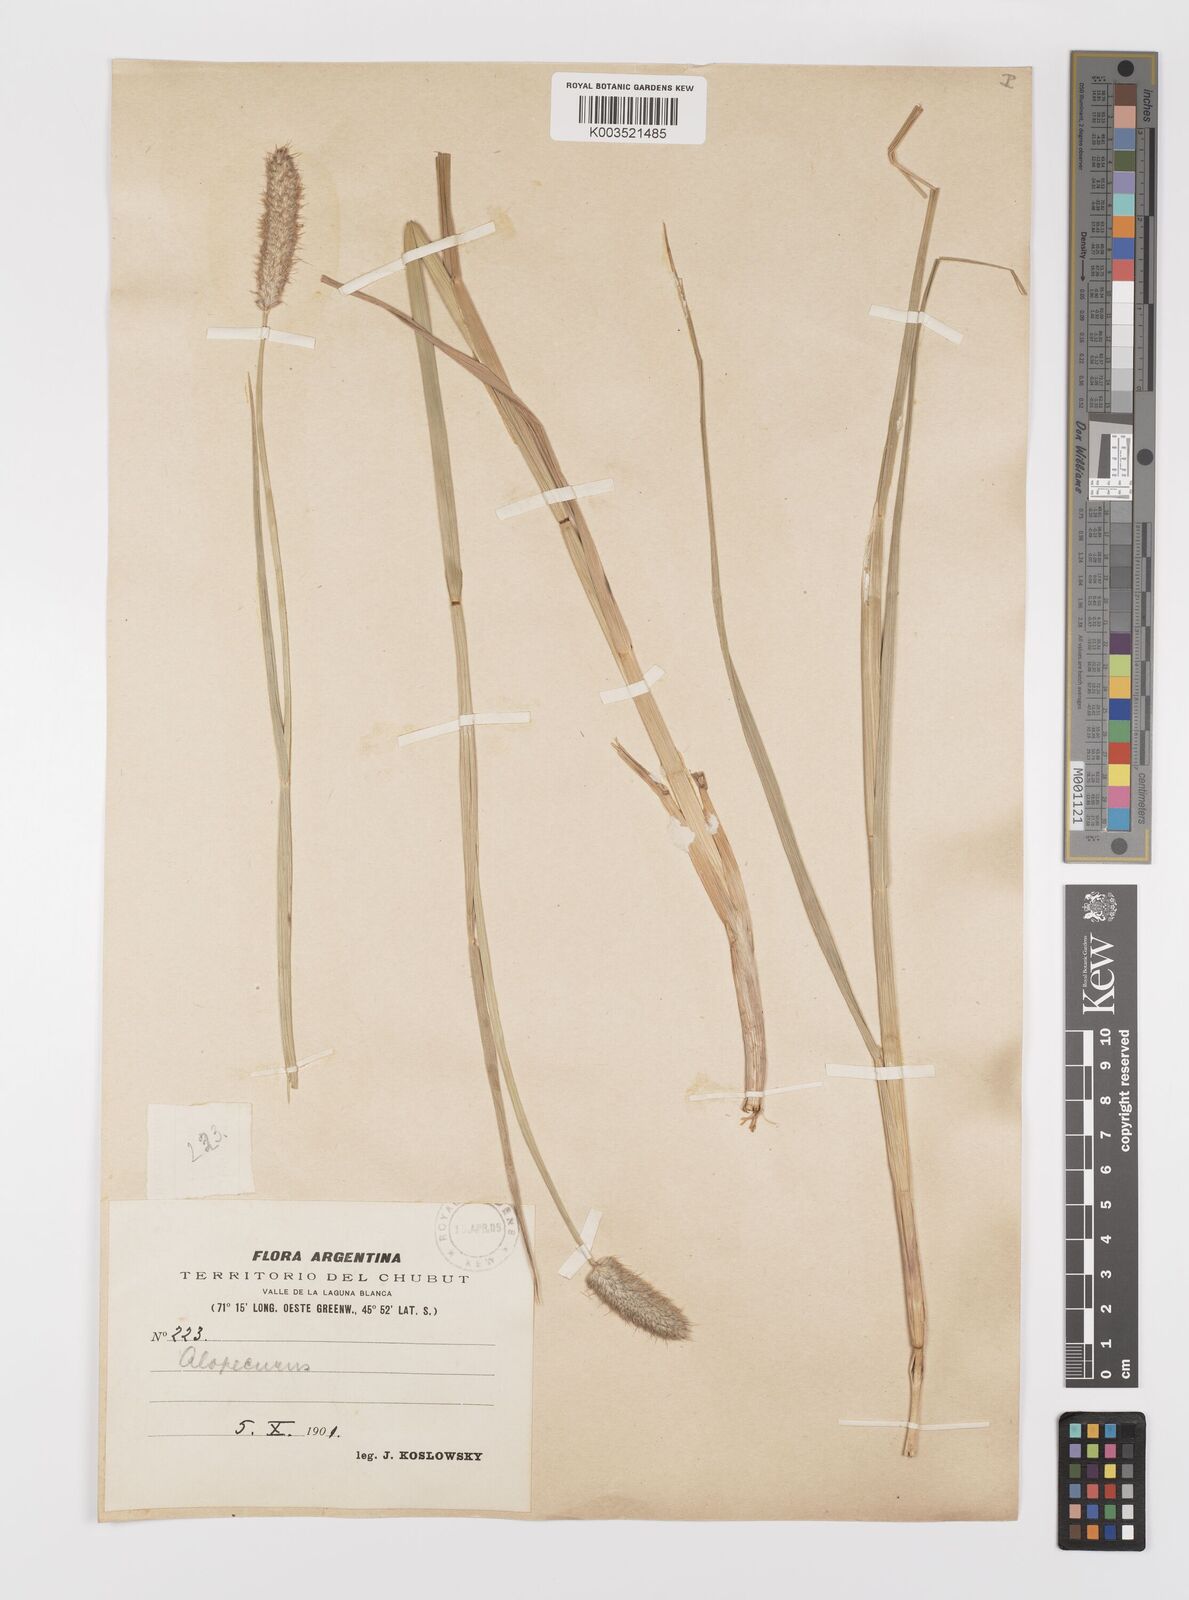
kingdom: Plantae
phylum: Tracheophyta
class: Liliopsida
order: Poales
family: Poaceae
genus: Alopecurus
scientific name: Alopecurus magellanicus
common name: Alpine foxtail
